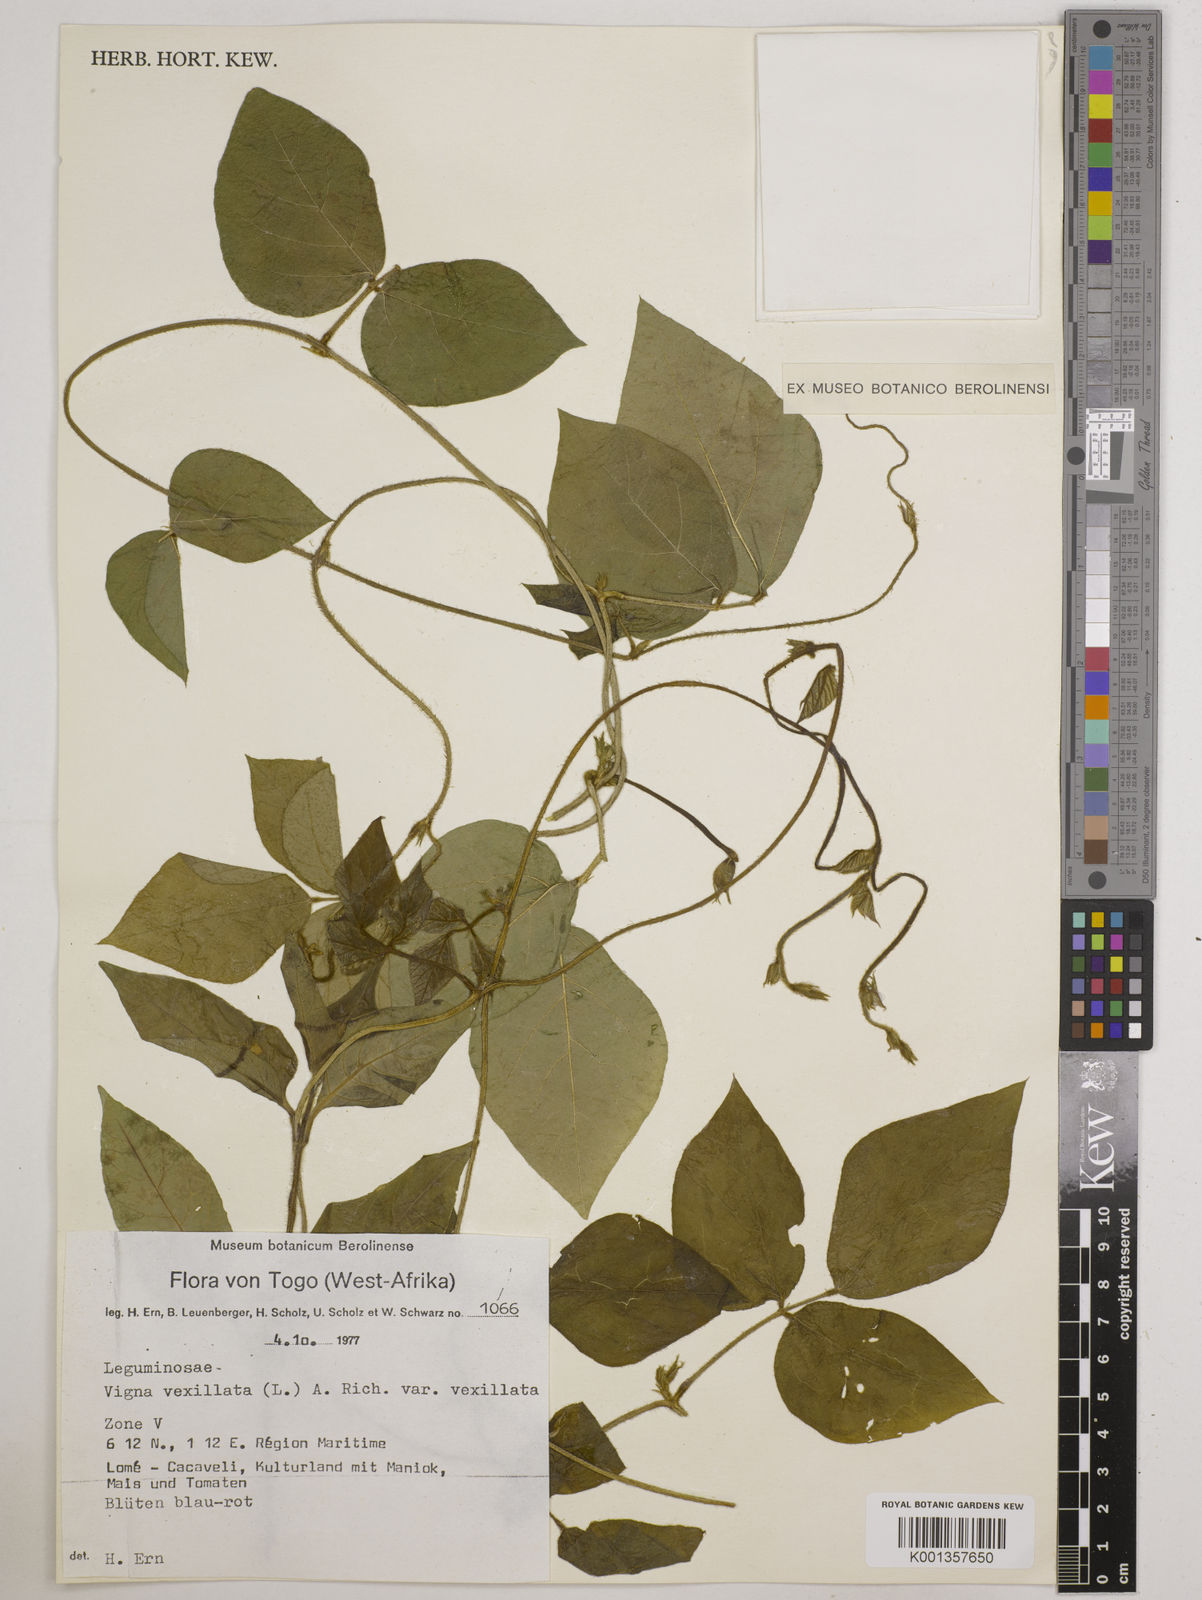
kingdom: Plantae
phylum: Tracheophyta
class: Magnoliopsida
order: Fabales
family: Fabaceae
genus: Vigna
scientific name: Vigna vexillata
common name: Zombi pea
